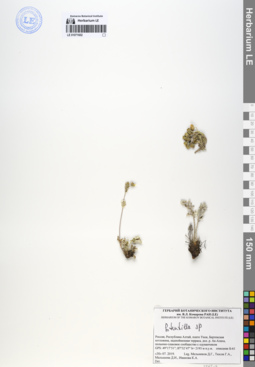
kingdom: Plantae
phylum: Tracheophyta
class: Magnoliopsida
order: Rosales
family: Rosaceae
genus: Potentilla
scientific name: Potentilla
